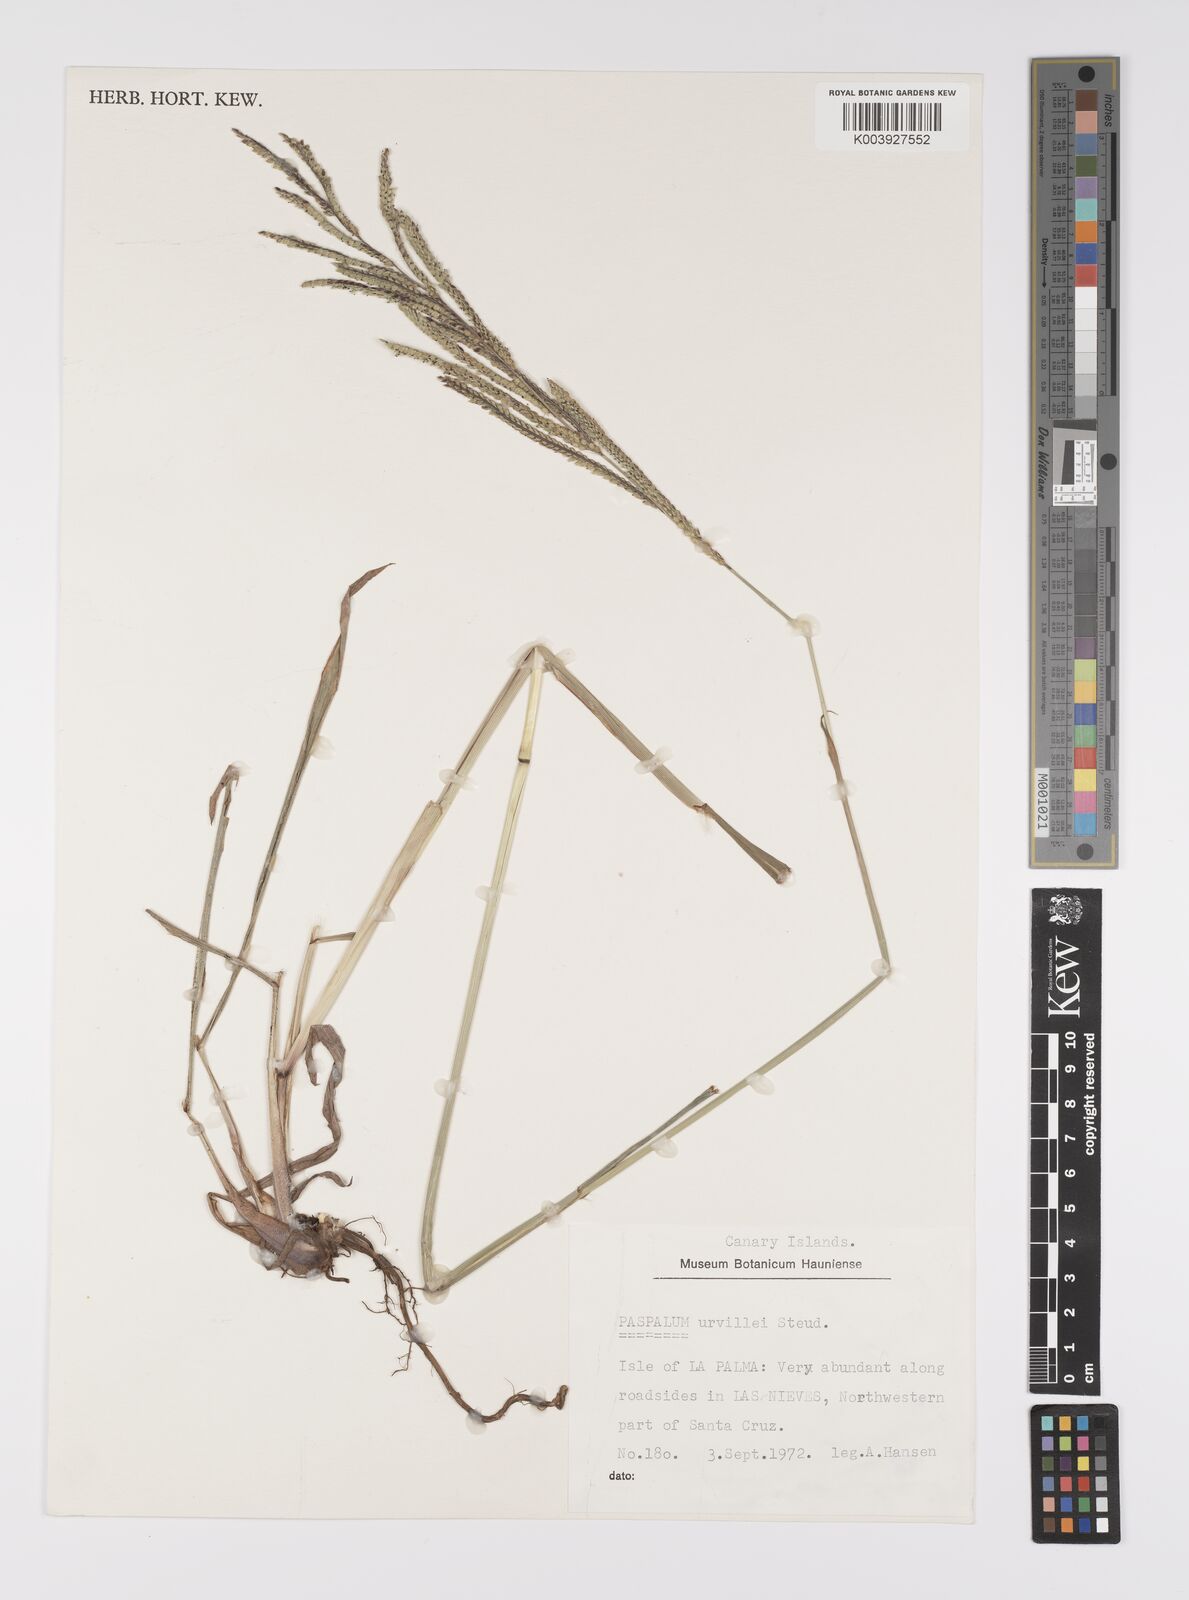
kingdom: Plantae
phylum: Tracheophyta
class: Liliopsida
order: Poales
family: Poaceae
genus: Paspalum
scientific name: Paspalum
